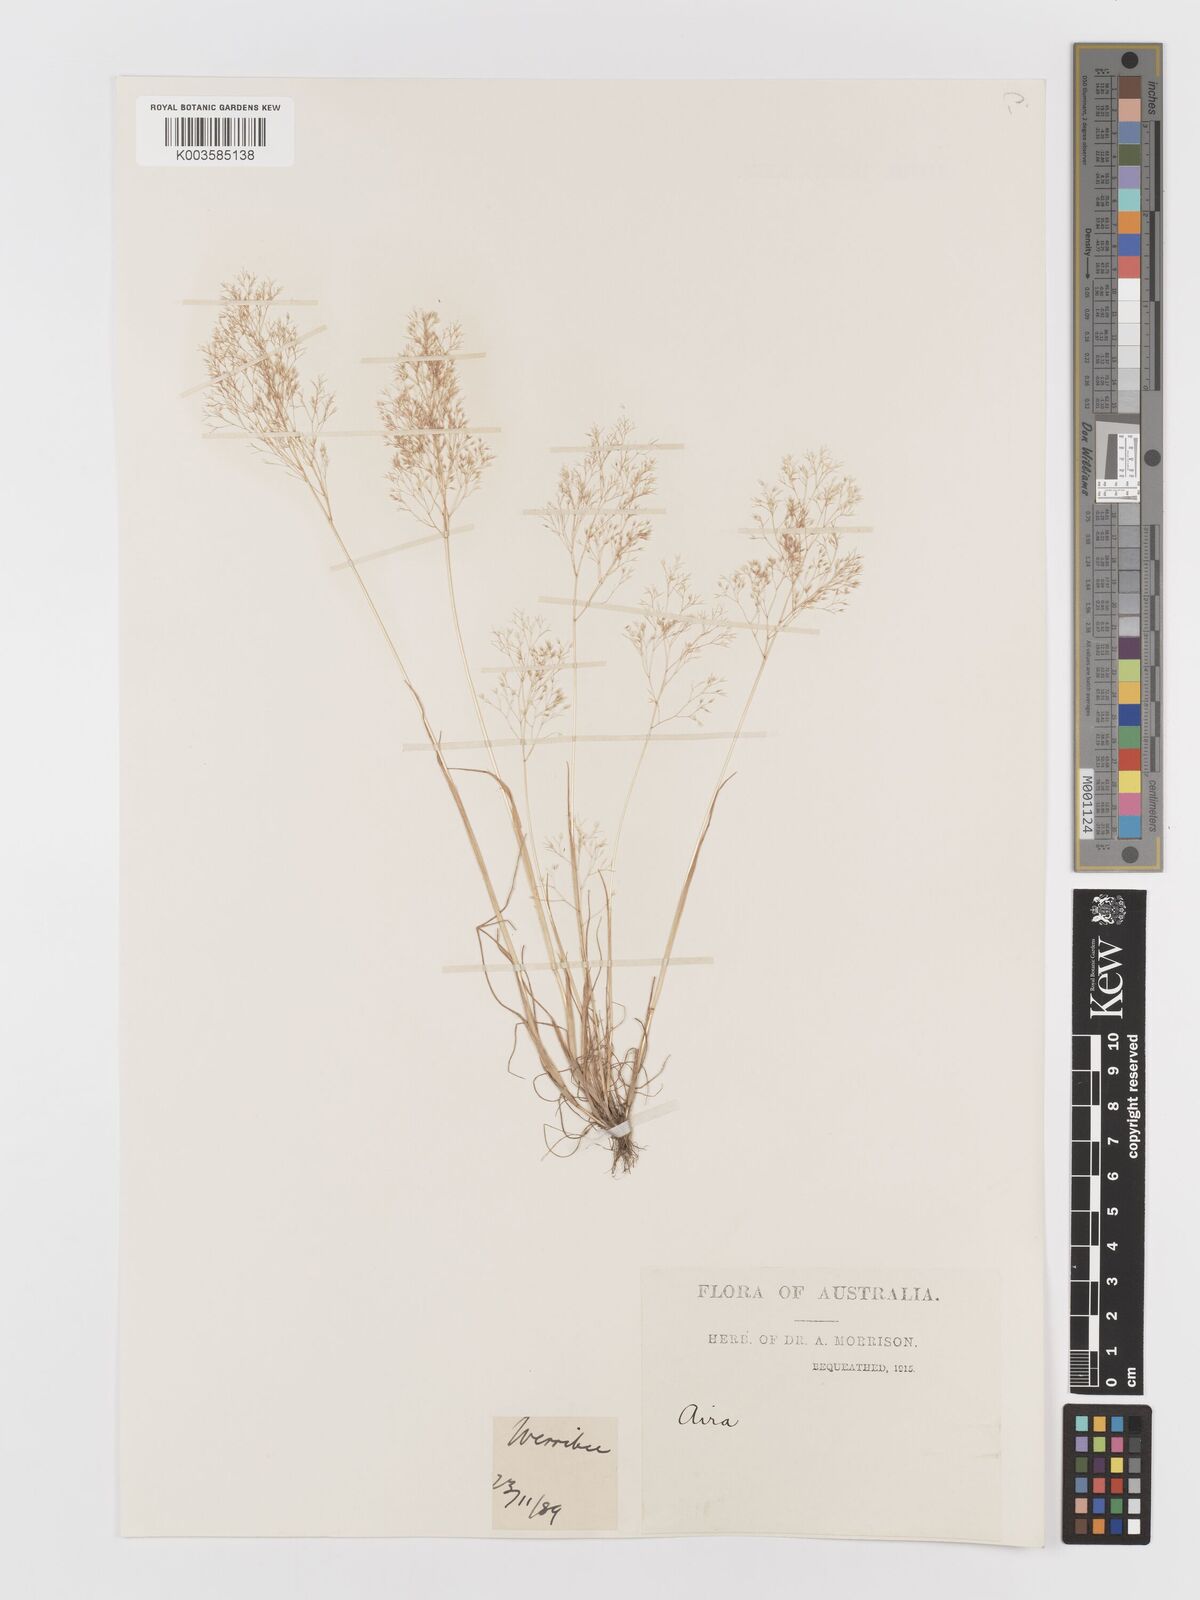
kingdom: Plantae
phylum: Tracheophyta
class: Liliopsida
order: Poales
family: Poaceae
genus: Aira
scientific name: Aira cupaniana
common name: Silver hairgrass
